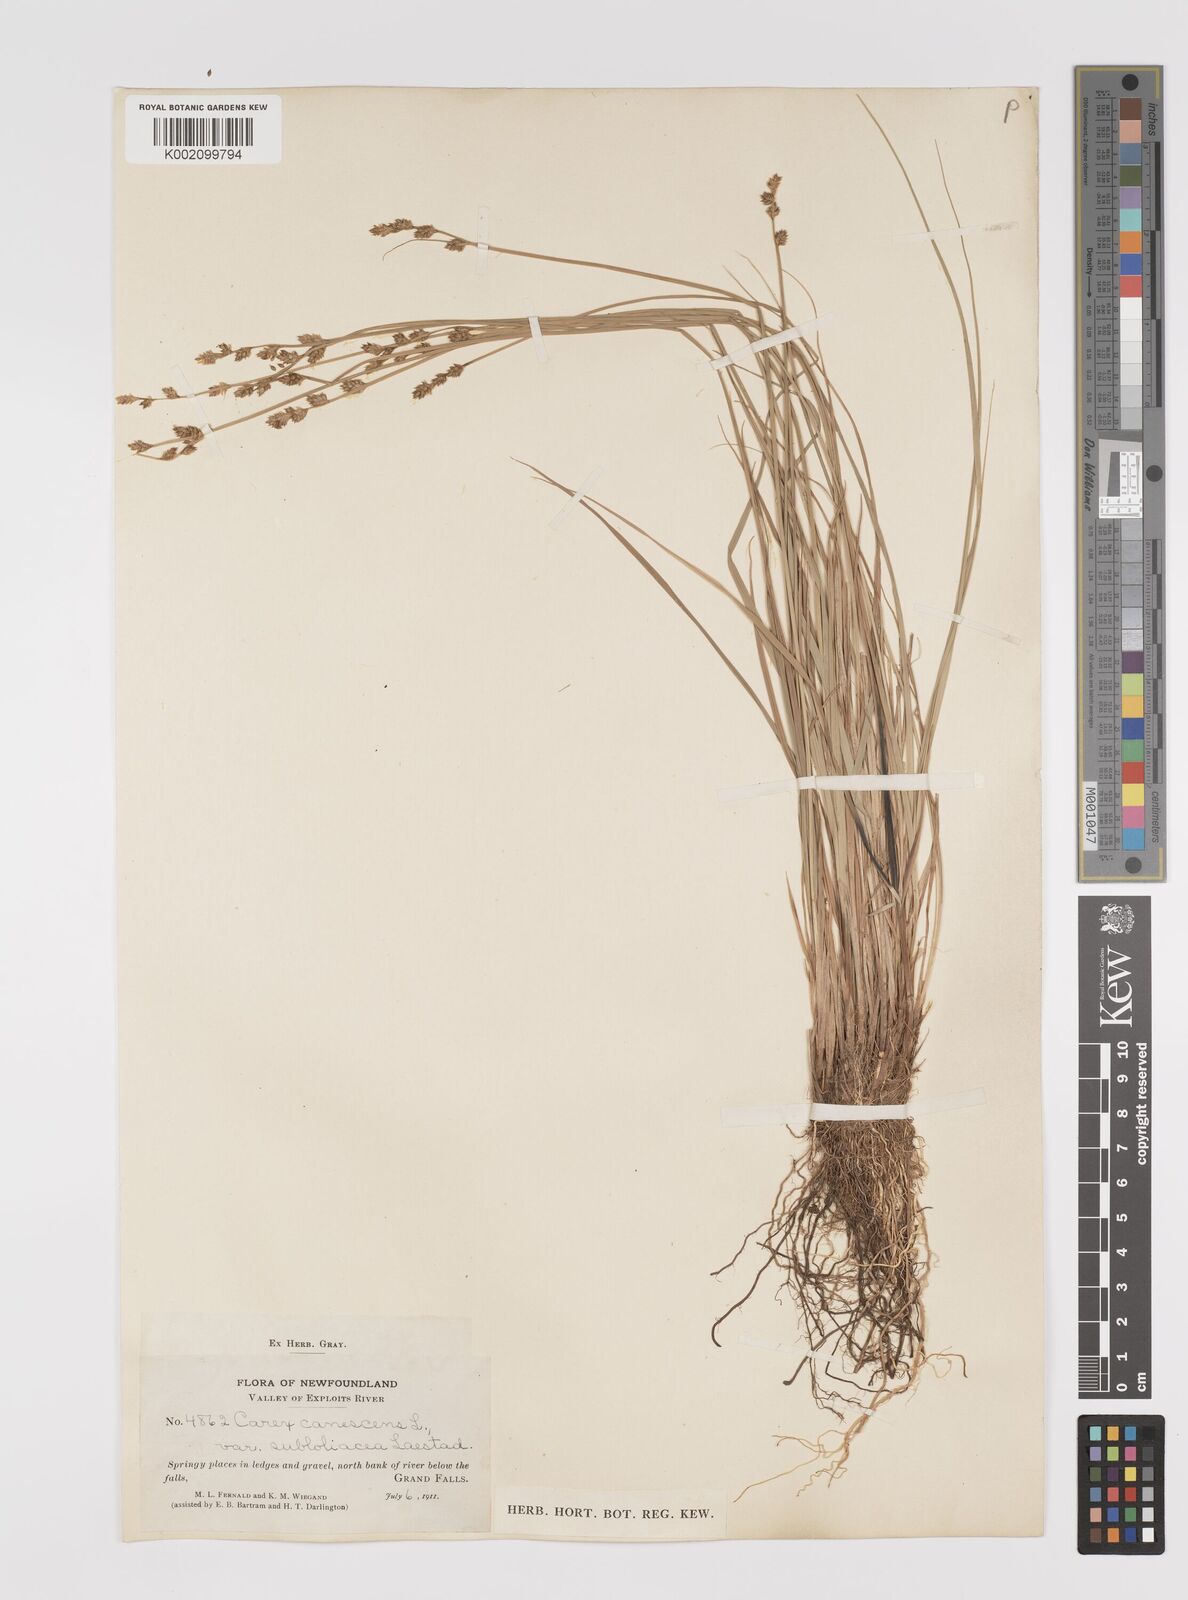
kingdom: Plantae
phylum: Tracheophyta
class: Liliopsida
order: Poales
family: Cyperaceae
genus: Carex
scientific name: Carex curta
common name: White sedge
